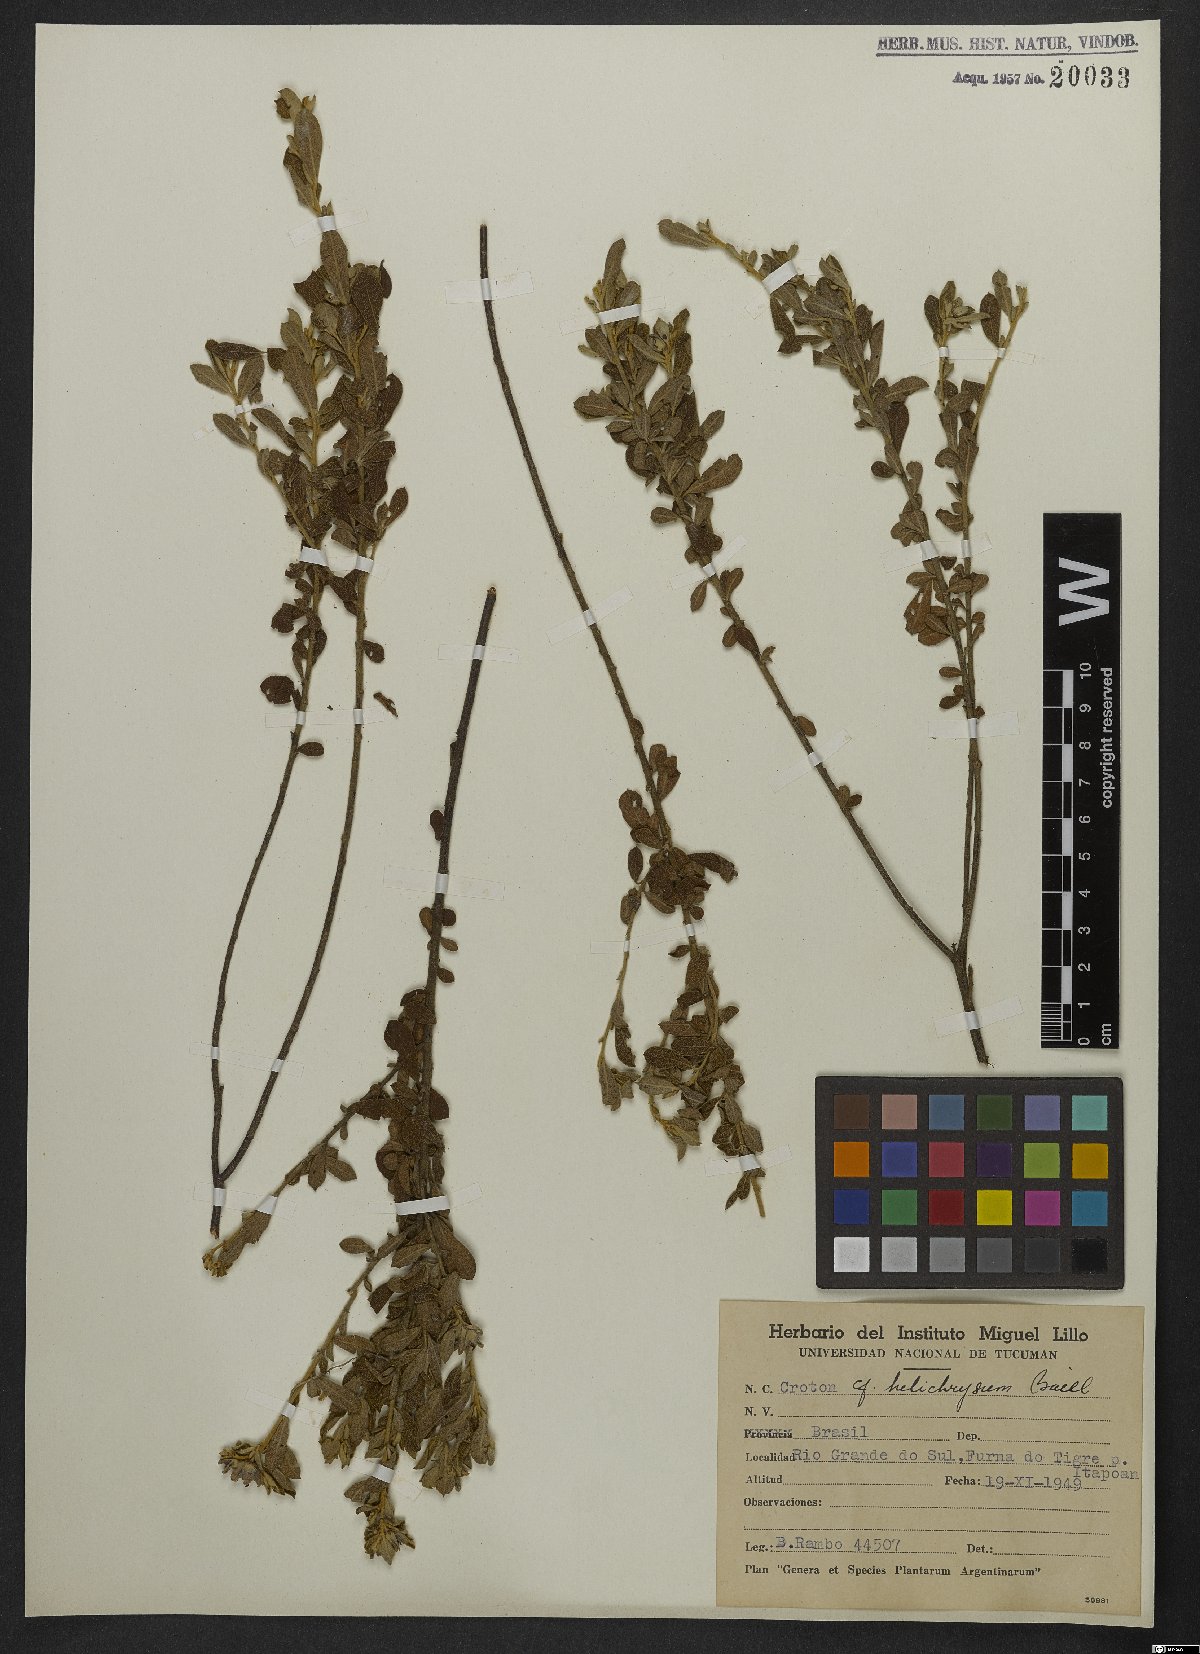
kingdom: Plantae
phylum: Tracheophyta
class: Magnoliopsida
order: Malpighiales
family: Euphorbiaceae
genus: Croton
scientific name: Croton helichrysum
